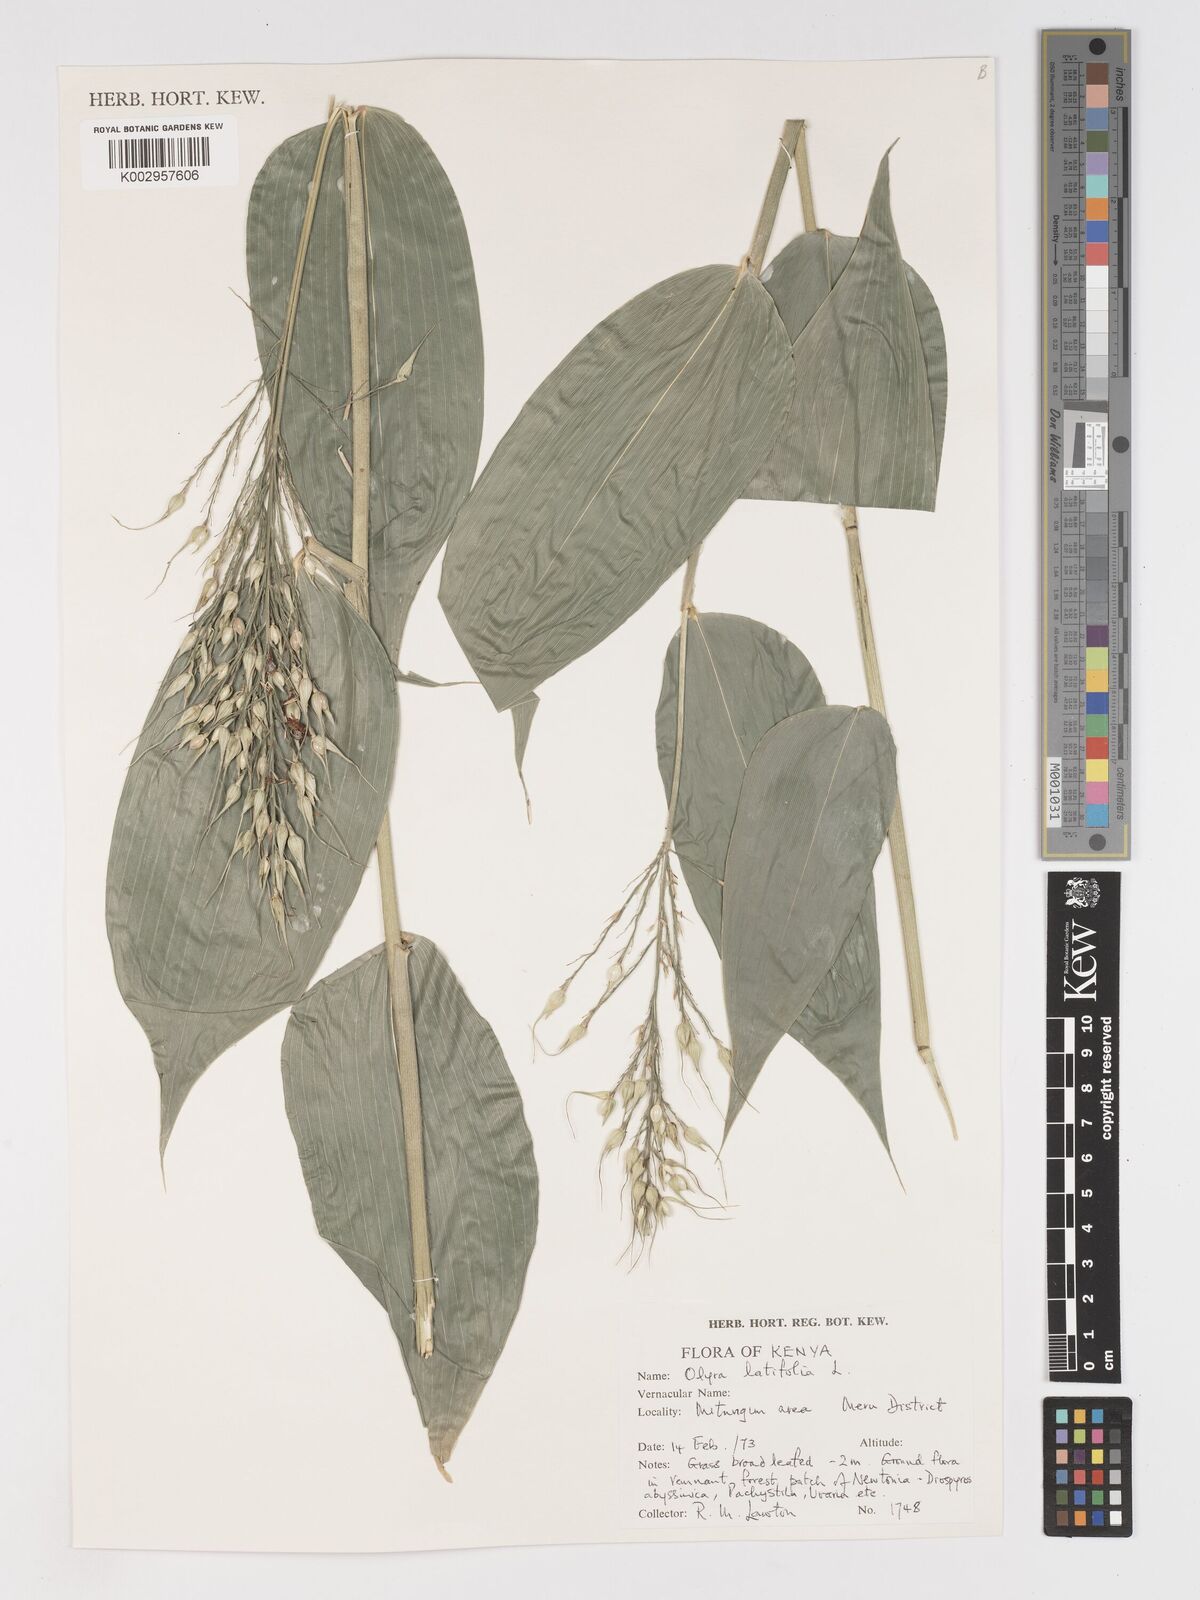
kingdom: Plantae
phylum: Tracheophyta
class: Liliopsida
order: Poales
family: Poaceae
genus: Olyra
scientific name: Olyra latifolia
